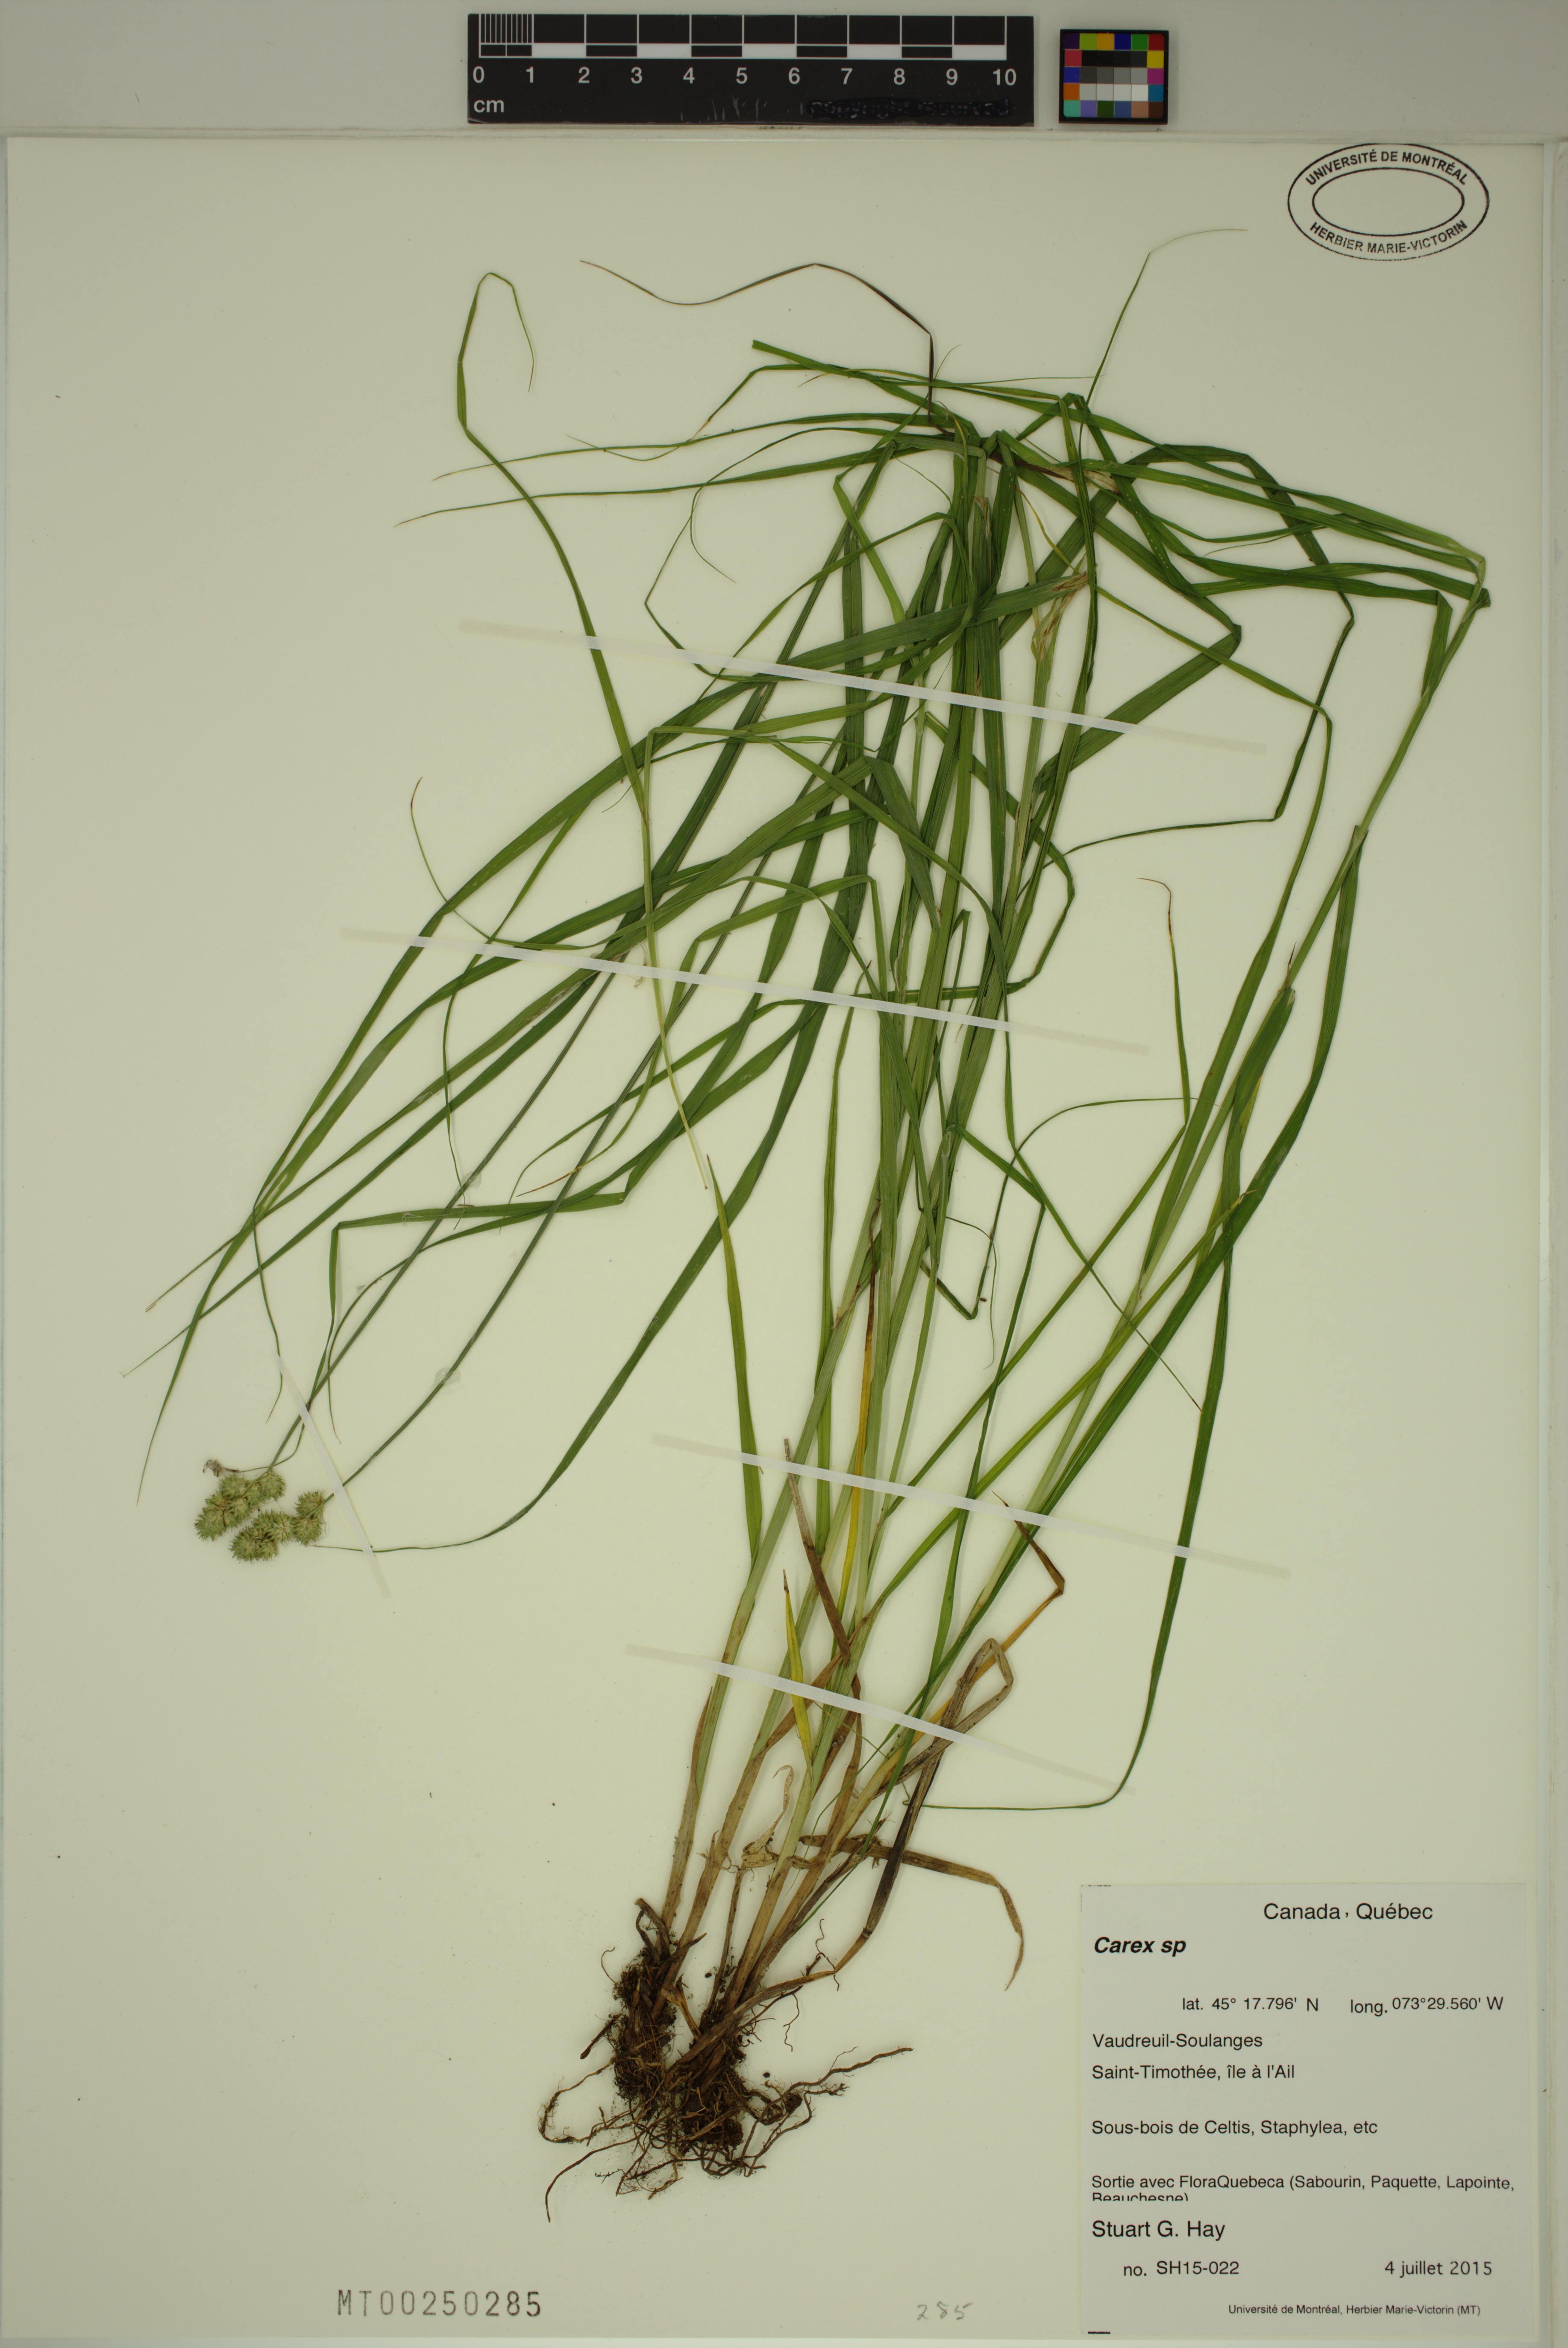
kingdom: Plantae
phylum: Tracheophyta
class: Liliopsida
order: Poales
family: Cyperaceae
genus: Carex
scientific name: Carex
